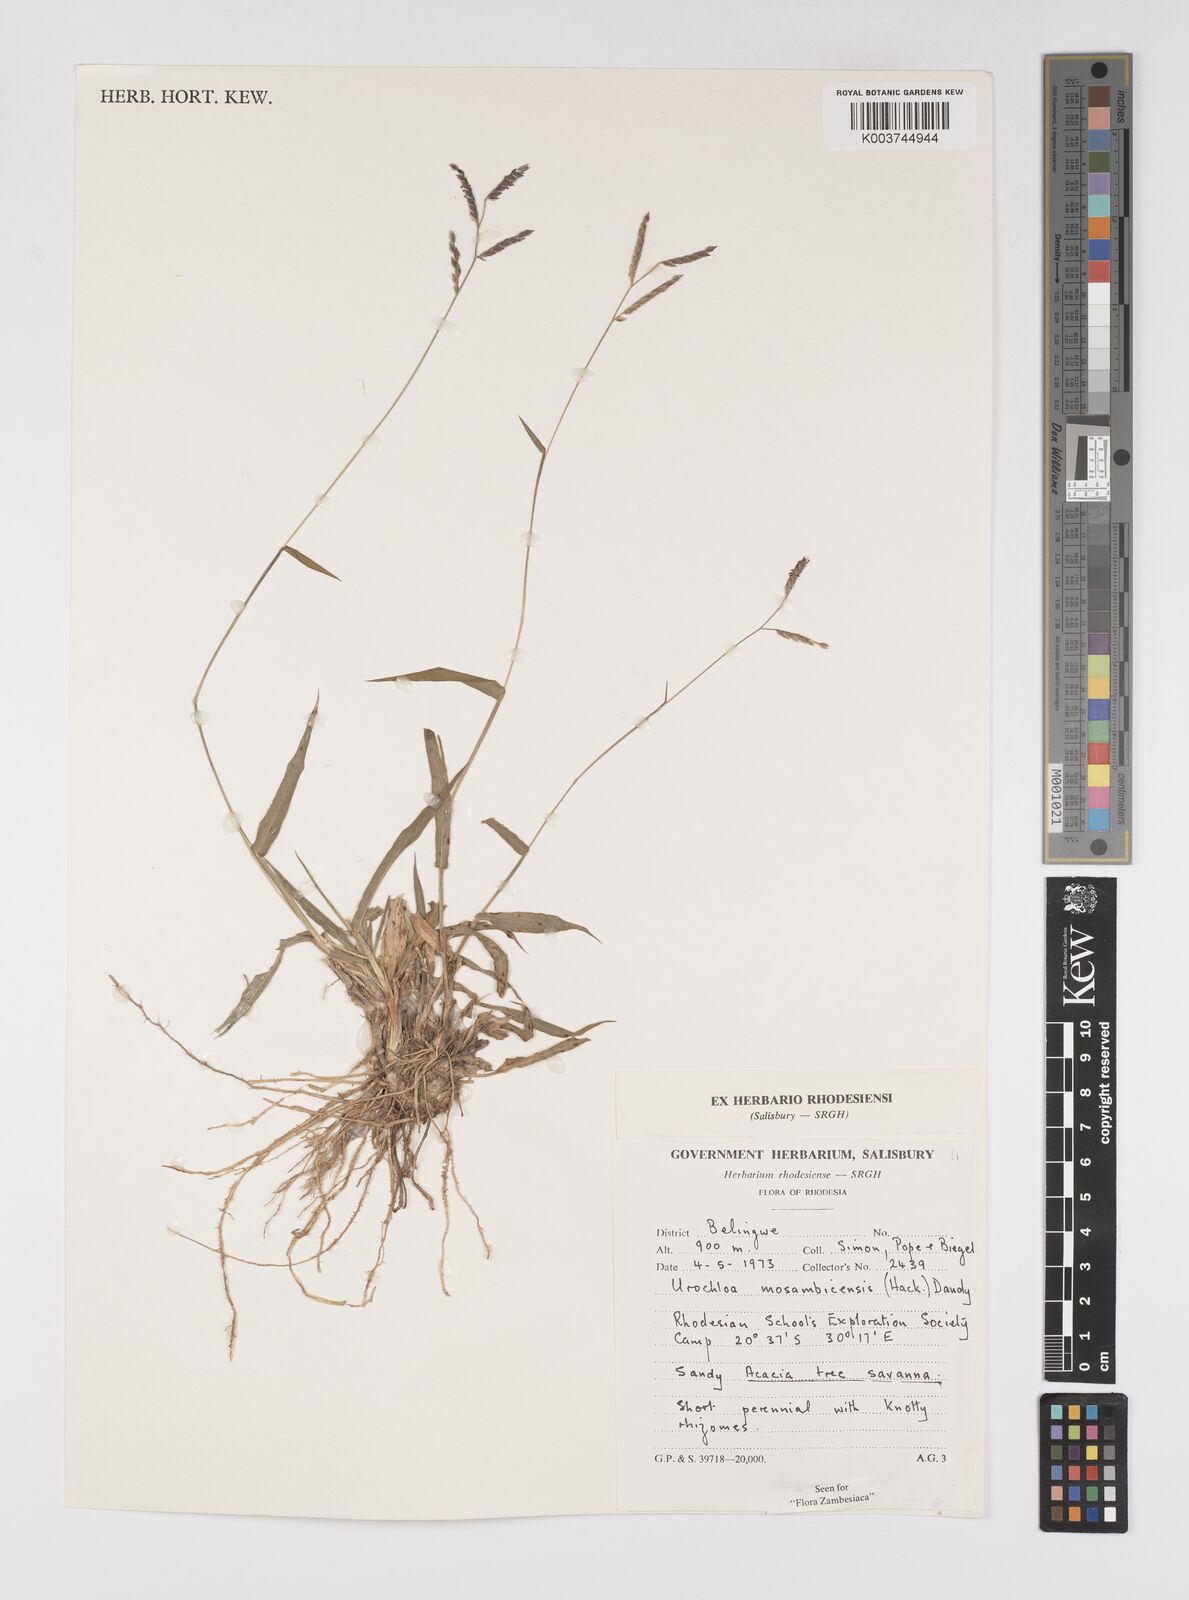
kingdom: Plantae
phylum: Tracheophyta
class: Liliopsida
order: Poales
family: Poaceae
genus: Urochloa
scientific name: Urochloa trichopus
